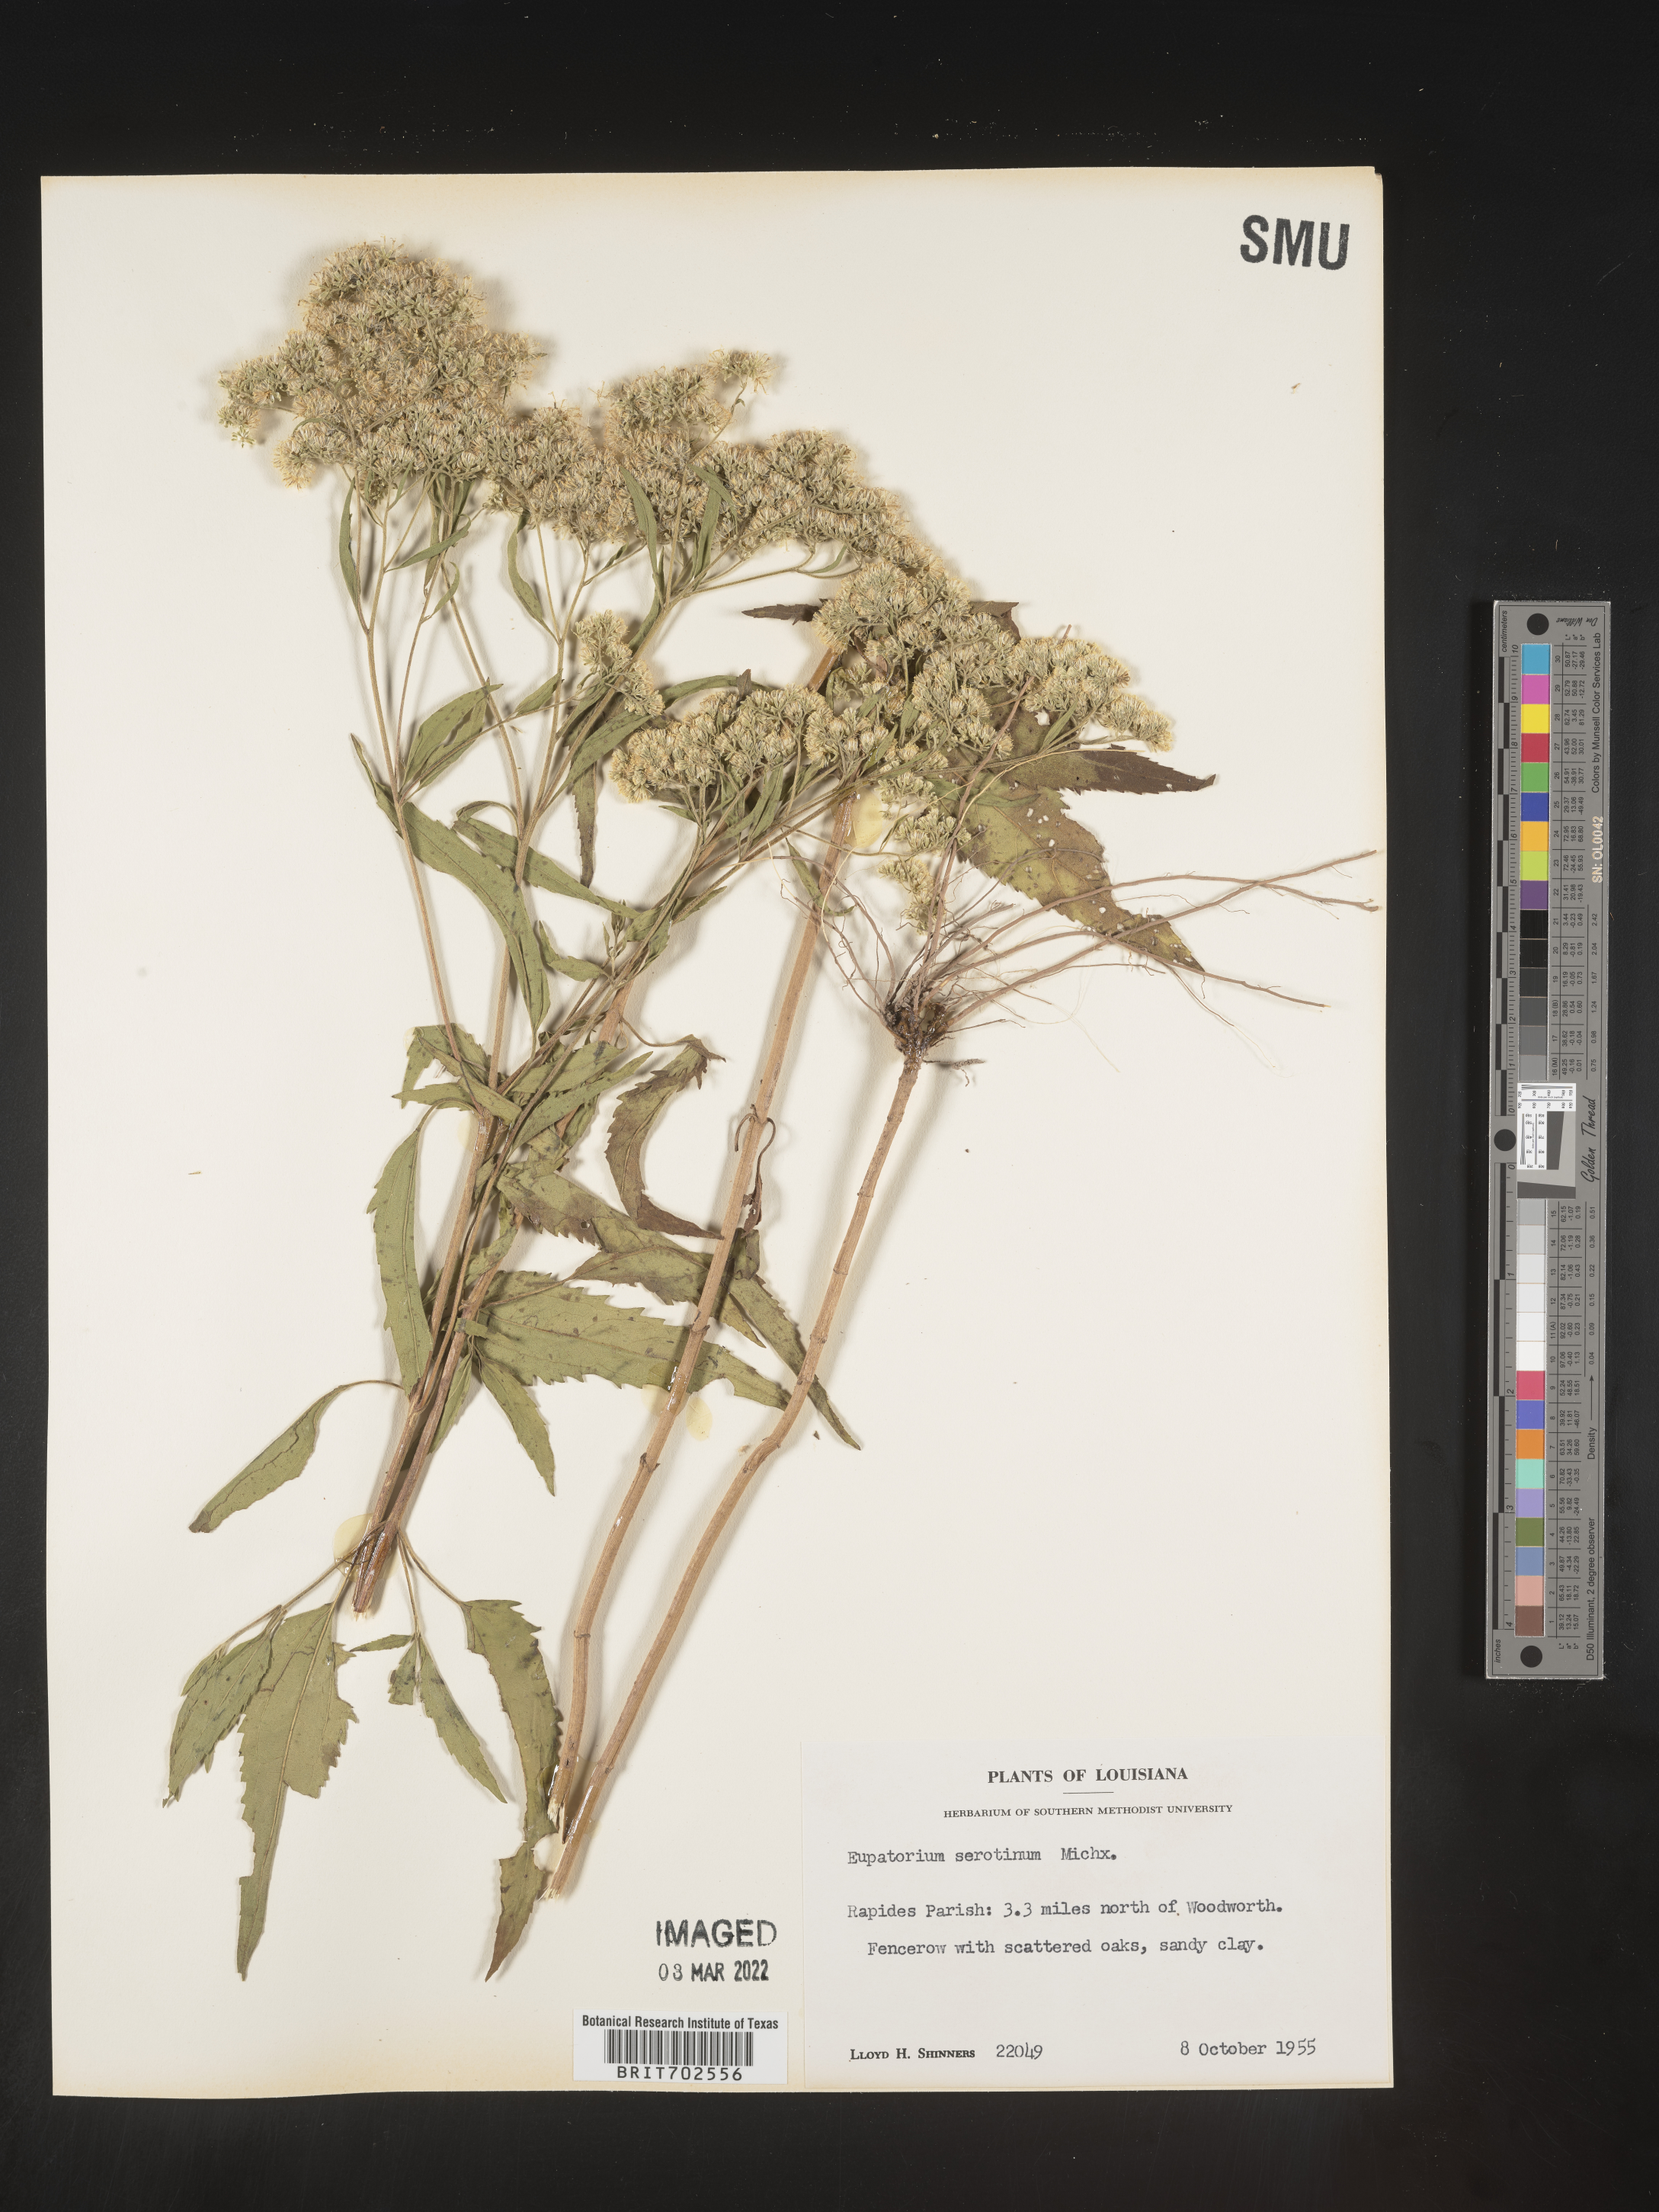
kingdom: Plantae
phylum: Tracheophyta
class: Magnoliopsida
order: Asterales
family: Asteraceae
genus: Eupatorium
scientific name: Eupatorium serotinum
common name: Late boneset
